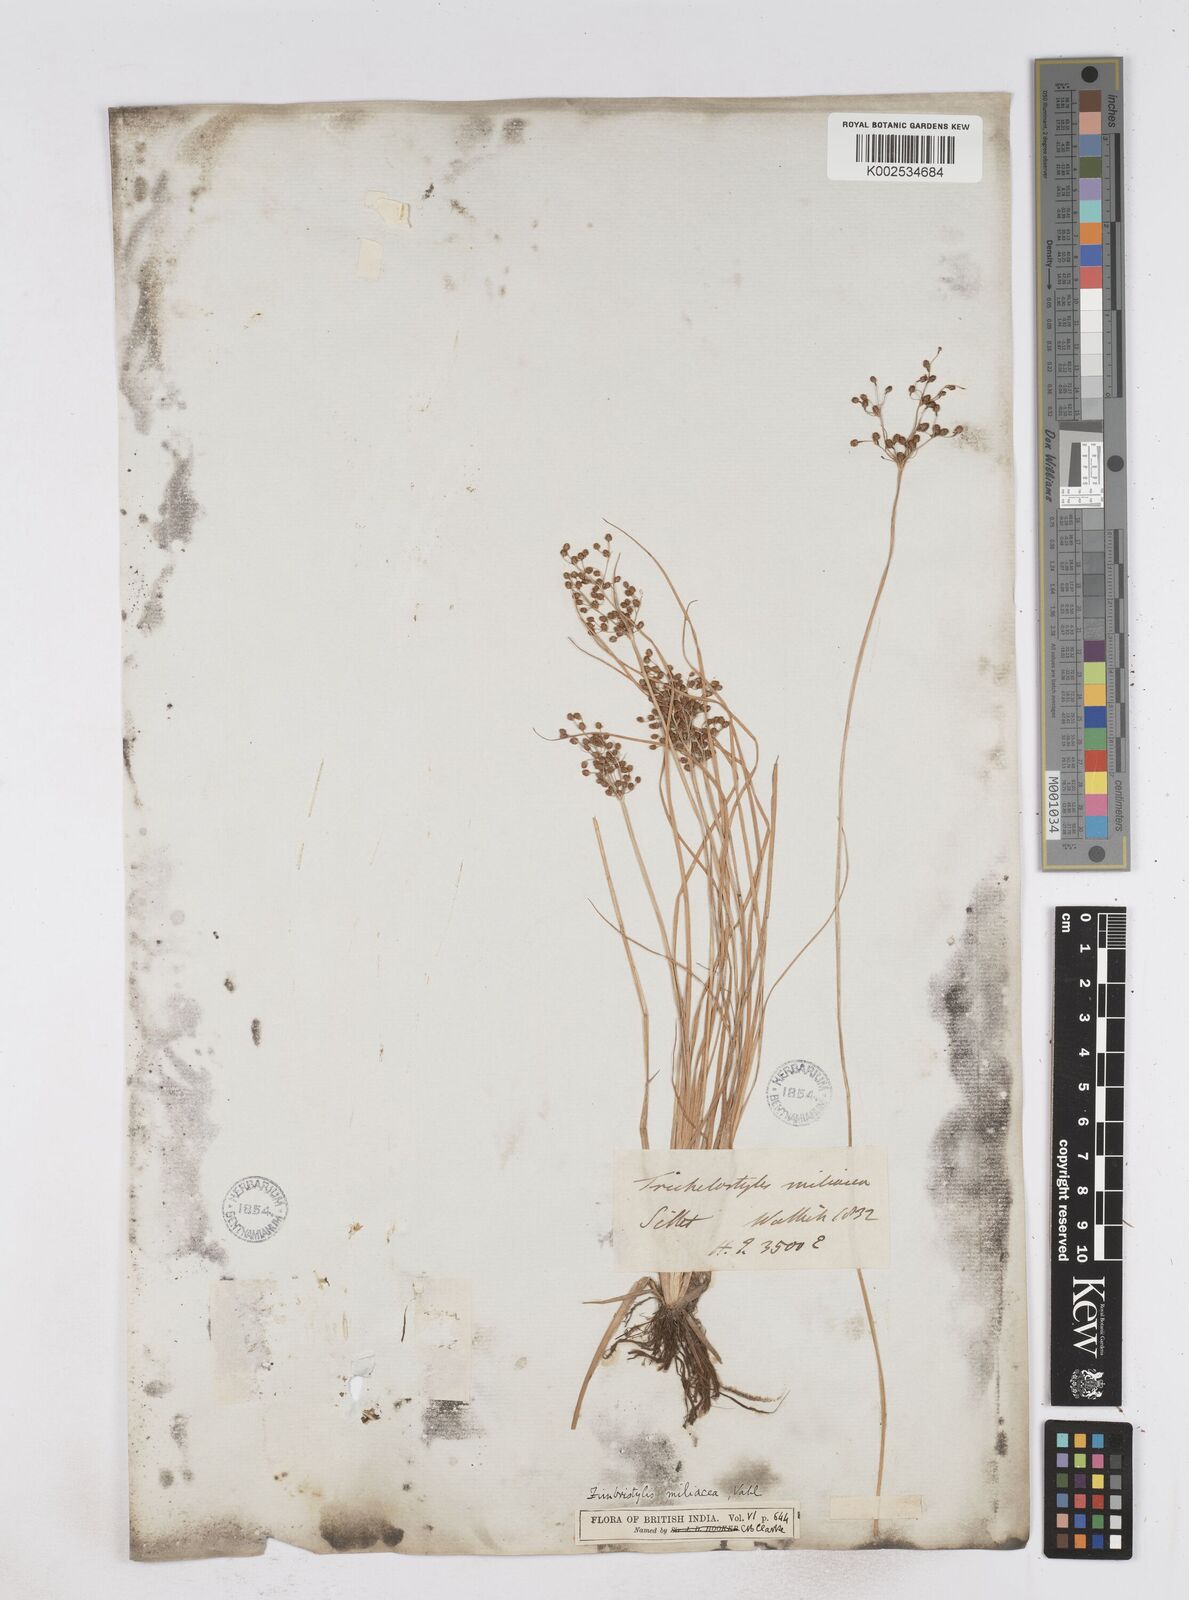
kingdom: Plantae
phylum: Tracheophyta
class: Liliopsida
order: Poales
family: Cyperaceae
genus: Fimbristylis
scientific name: Fimbristylis littoralis
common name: Fimbry
